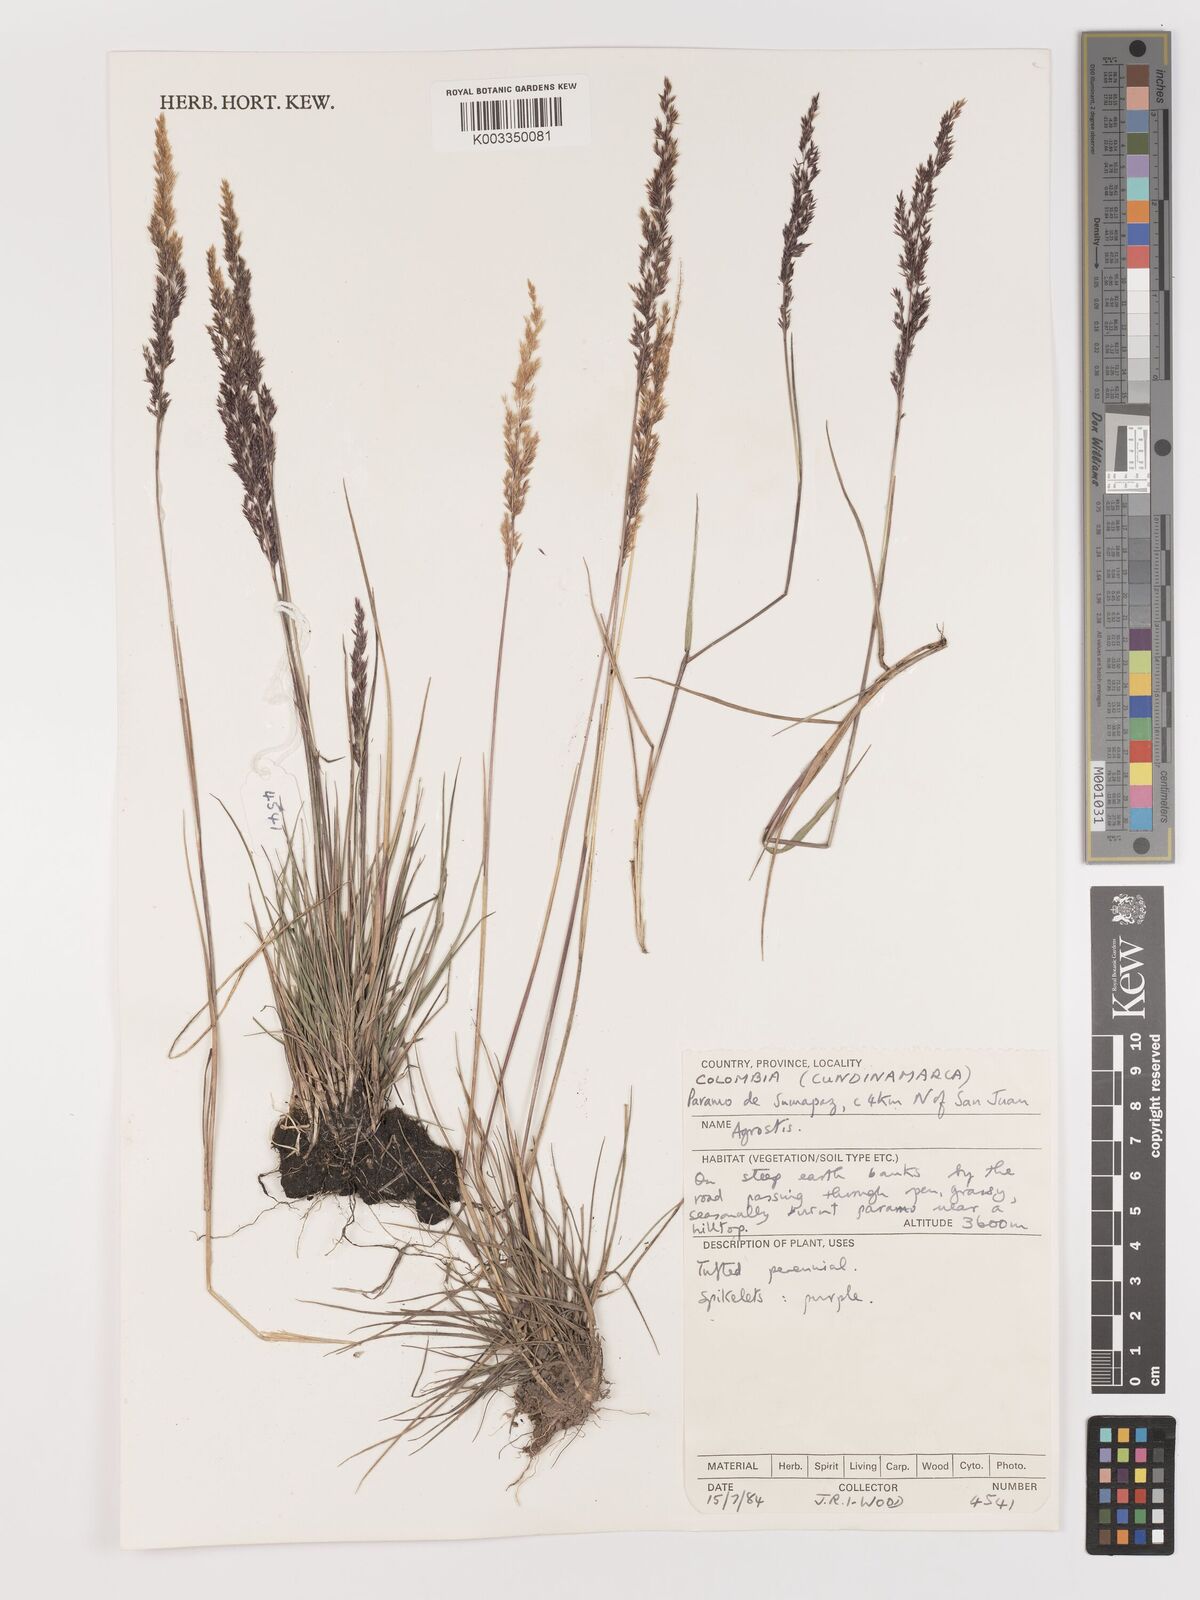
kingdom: Plantae
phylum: Tracheophyta
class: Liliopsida
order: Poales
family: Poaceae
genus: Agrostis
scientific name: Agrostis
